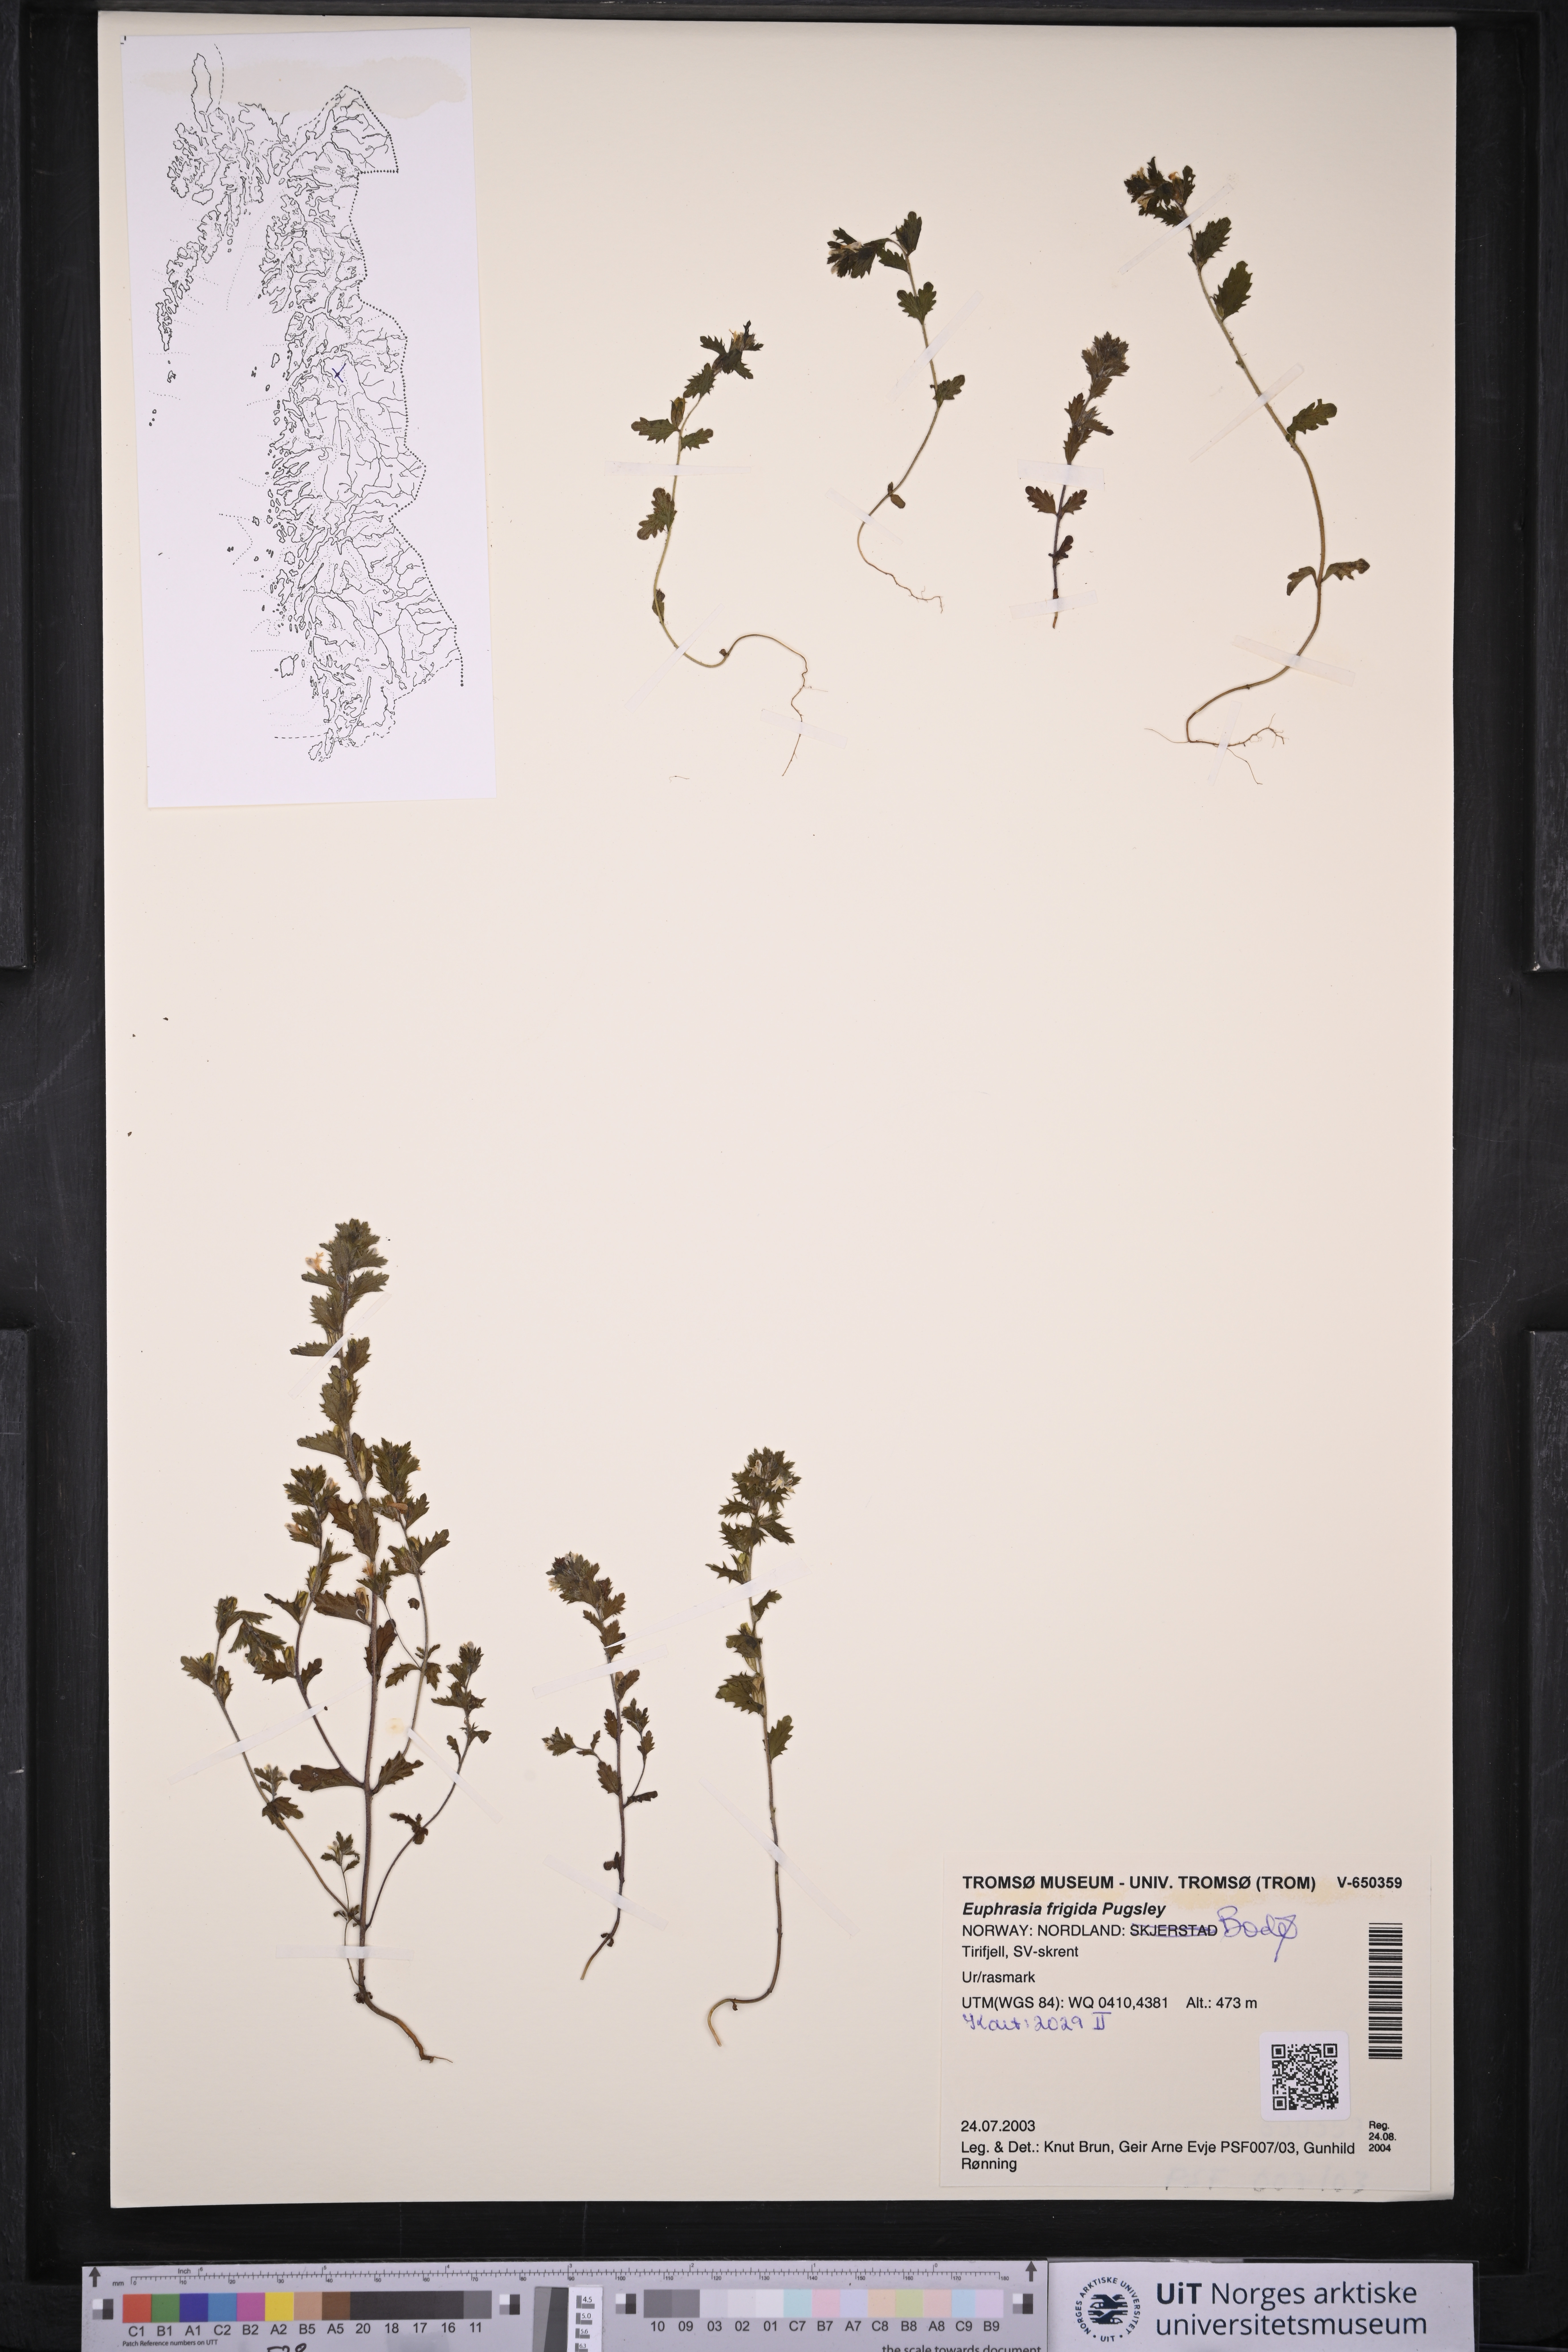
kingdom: Plantae
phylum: Tracheophyta
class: Magnoliopsida
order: Lamiales
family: Orobanchaceae
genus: Euphrasia
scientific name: Euphrasia frigida
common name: An eyebright
